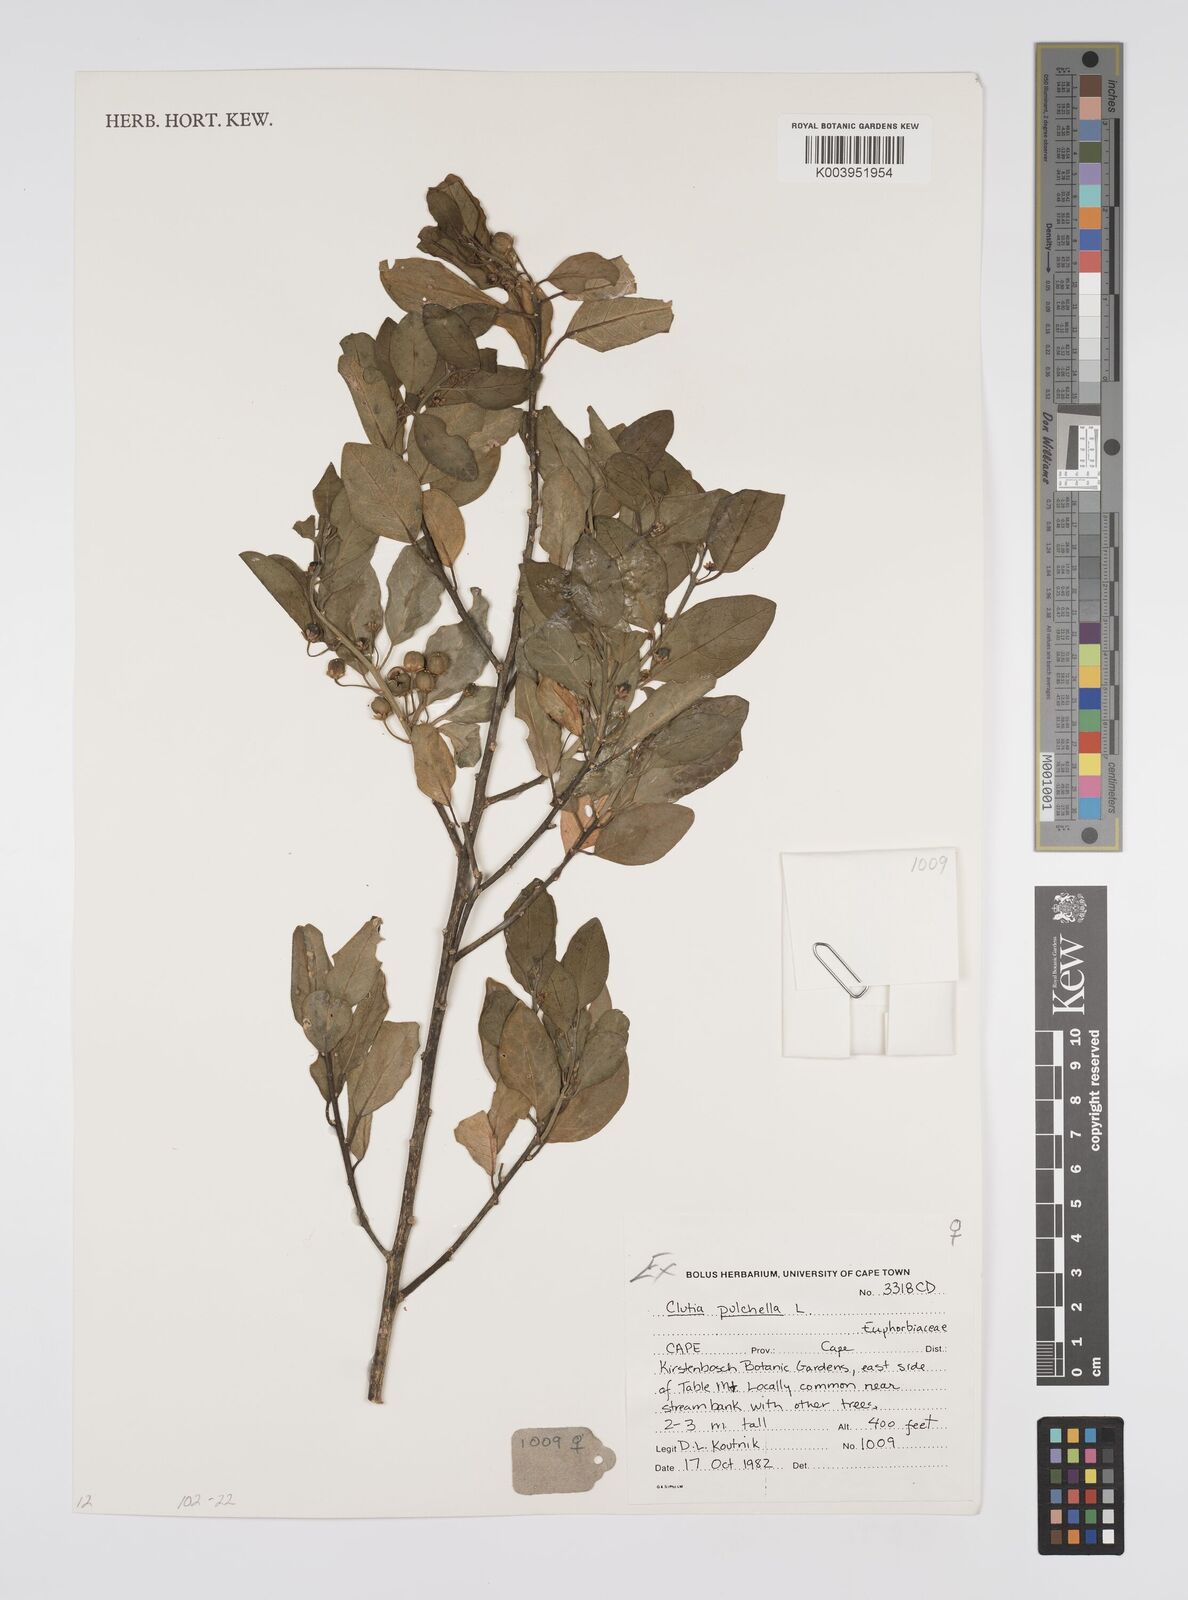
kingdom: Plantae
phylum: Tracheophyta
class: Magnoliopsida
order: Malpighiales
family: Peraceae
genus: Clutia
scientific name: Clutia pulchella
